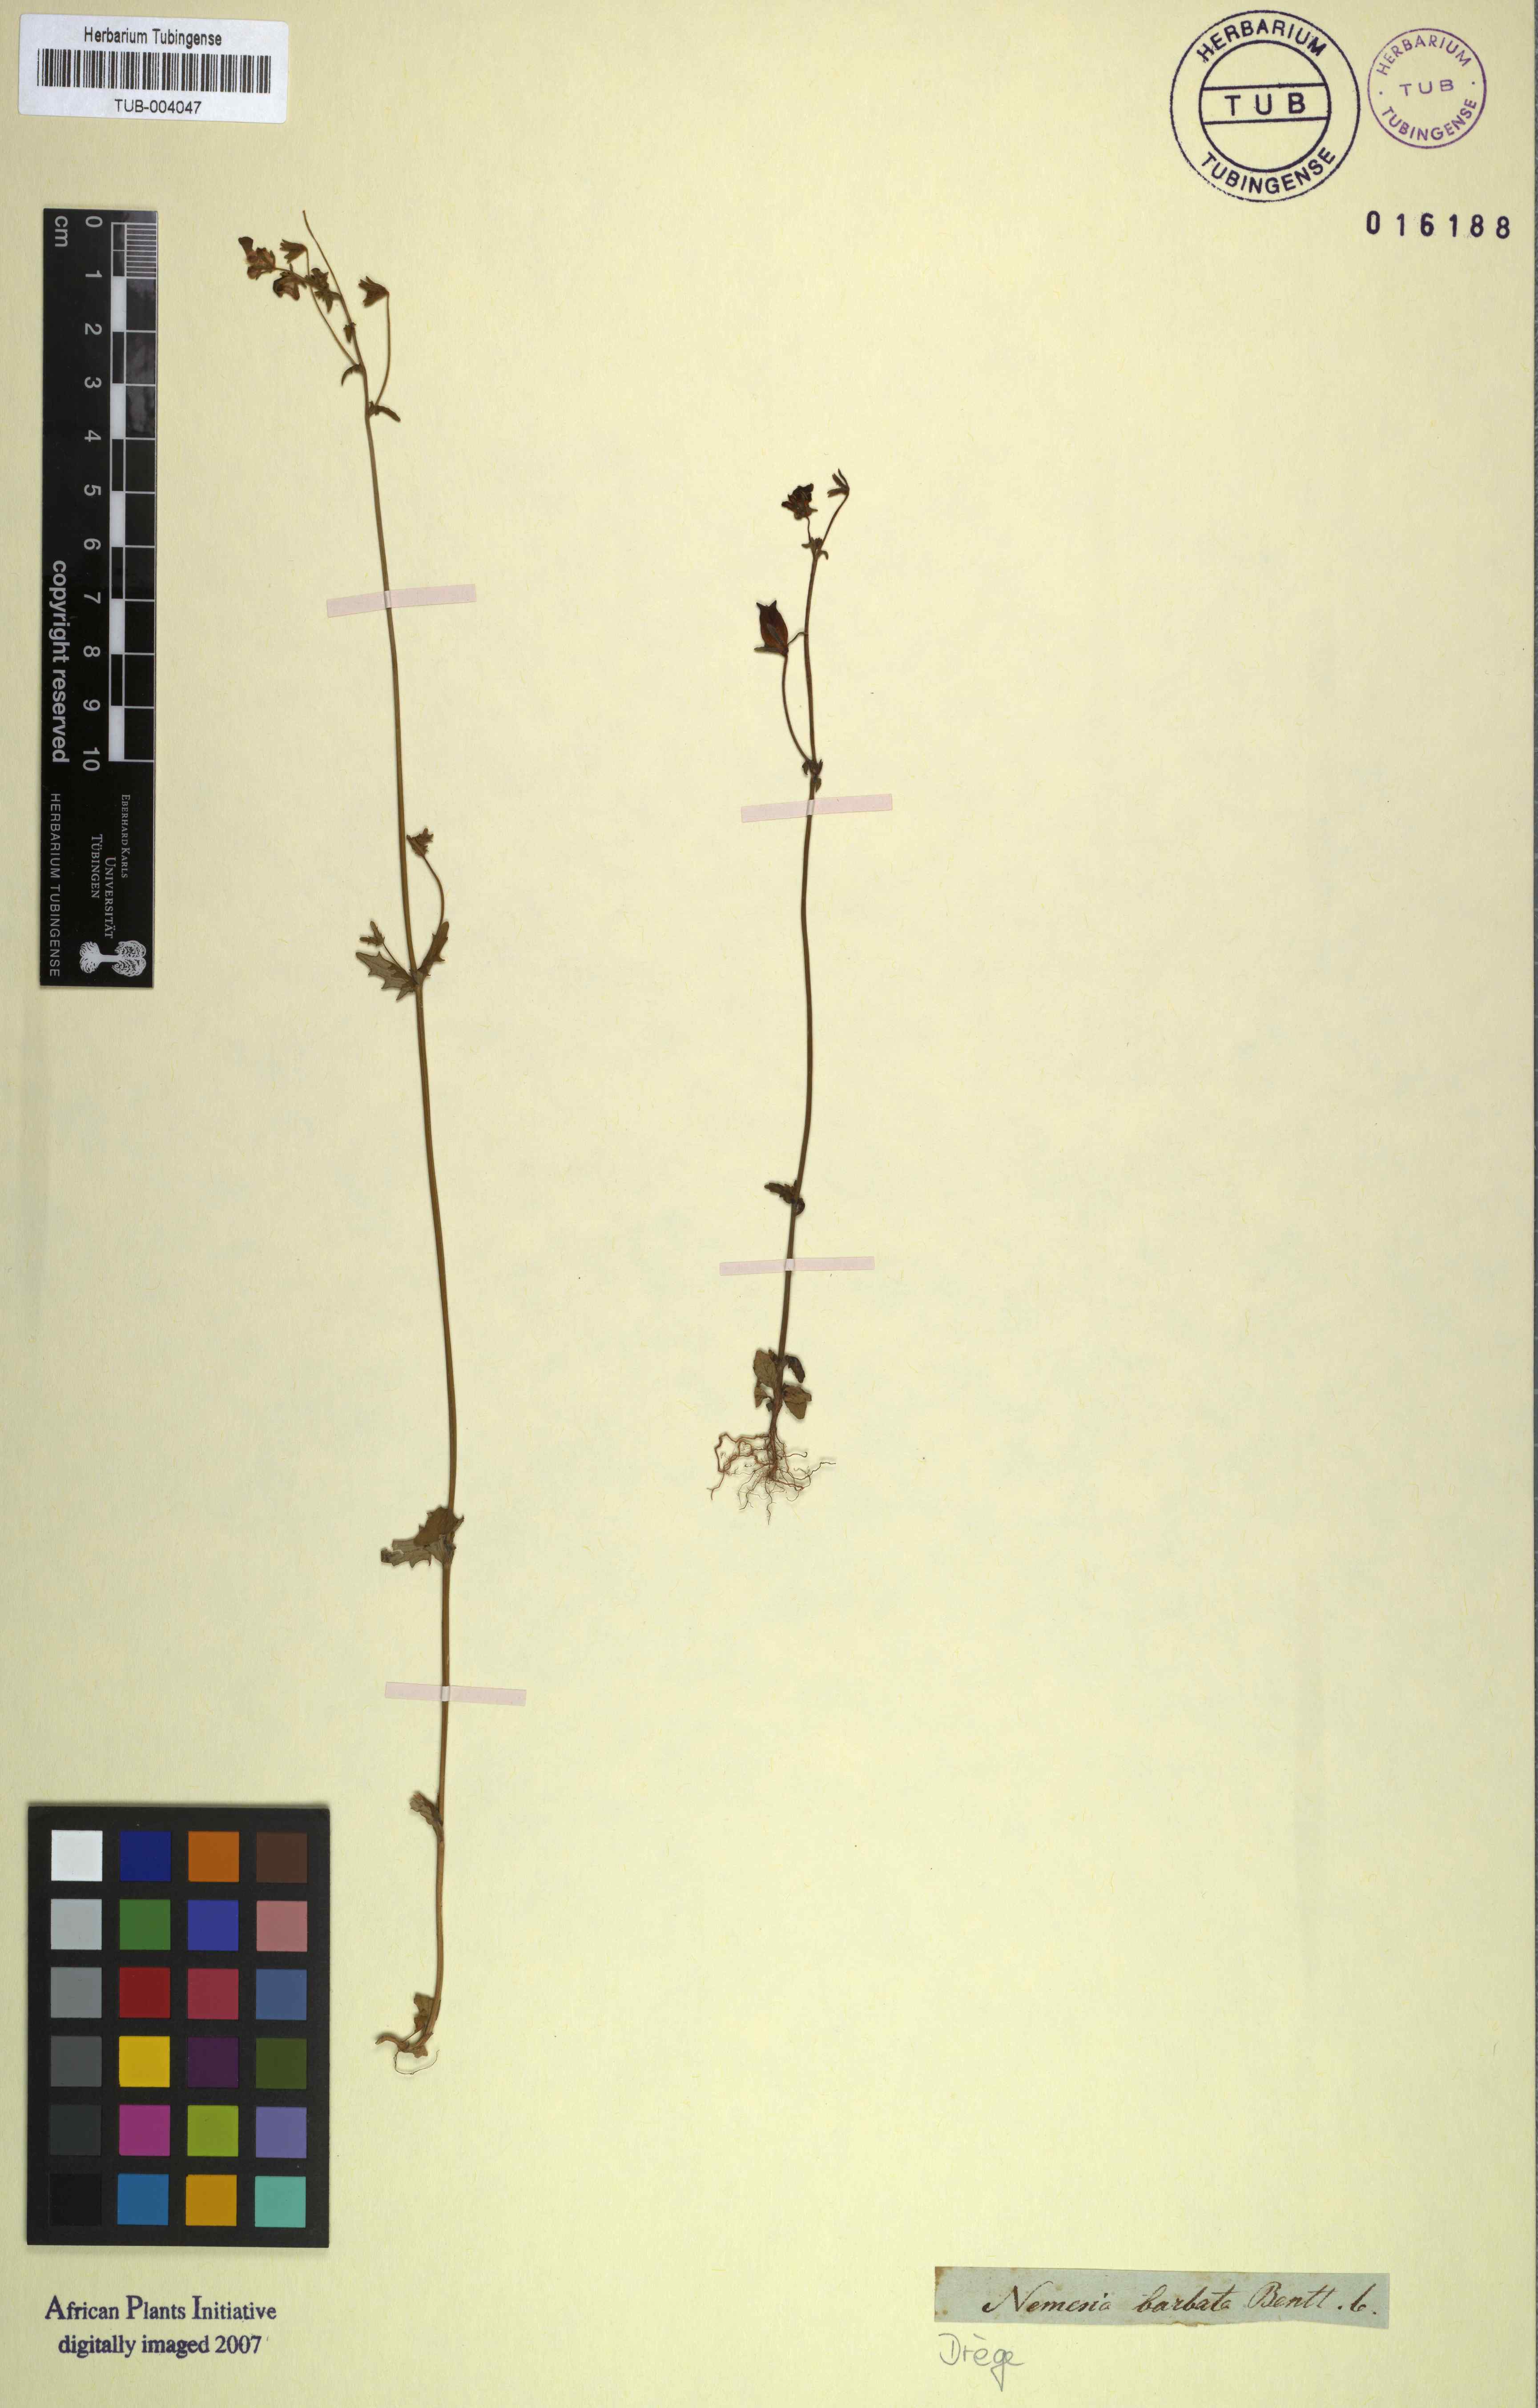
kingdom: Plantae
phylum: Tracheophyta
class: Magnoliopsida
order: Lamiales
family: Scrophulariaceae
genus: Nemesia
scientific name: Nemesia barbata
